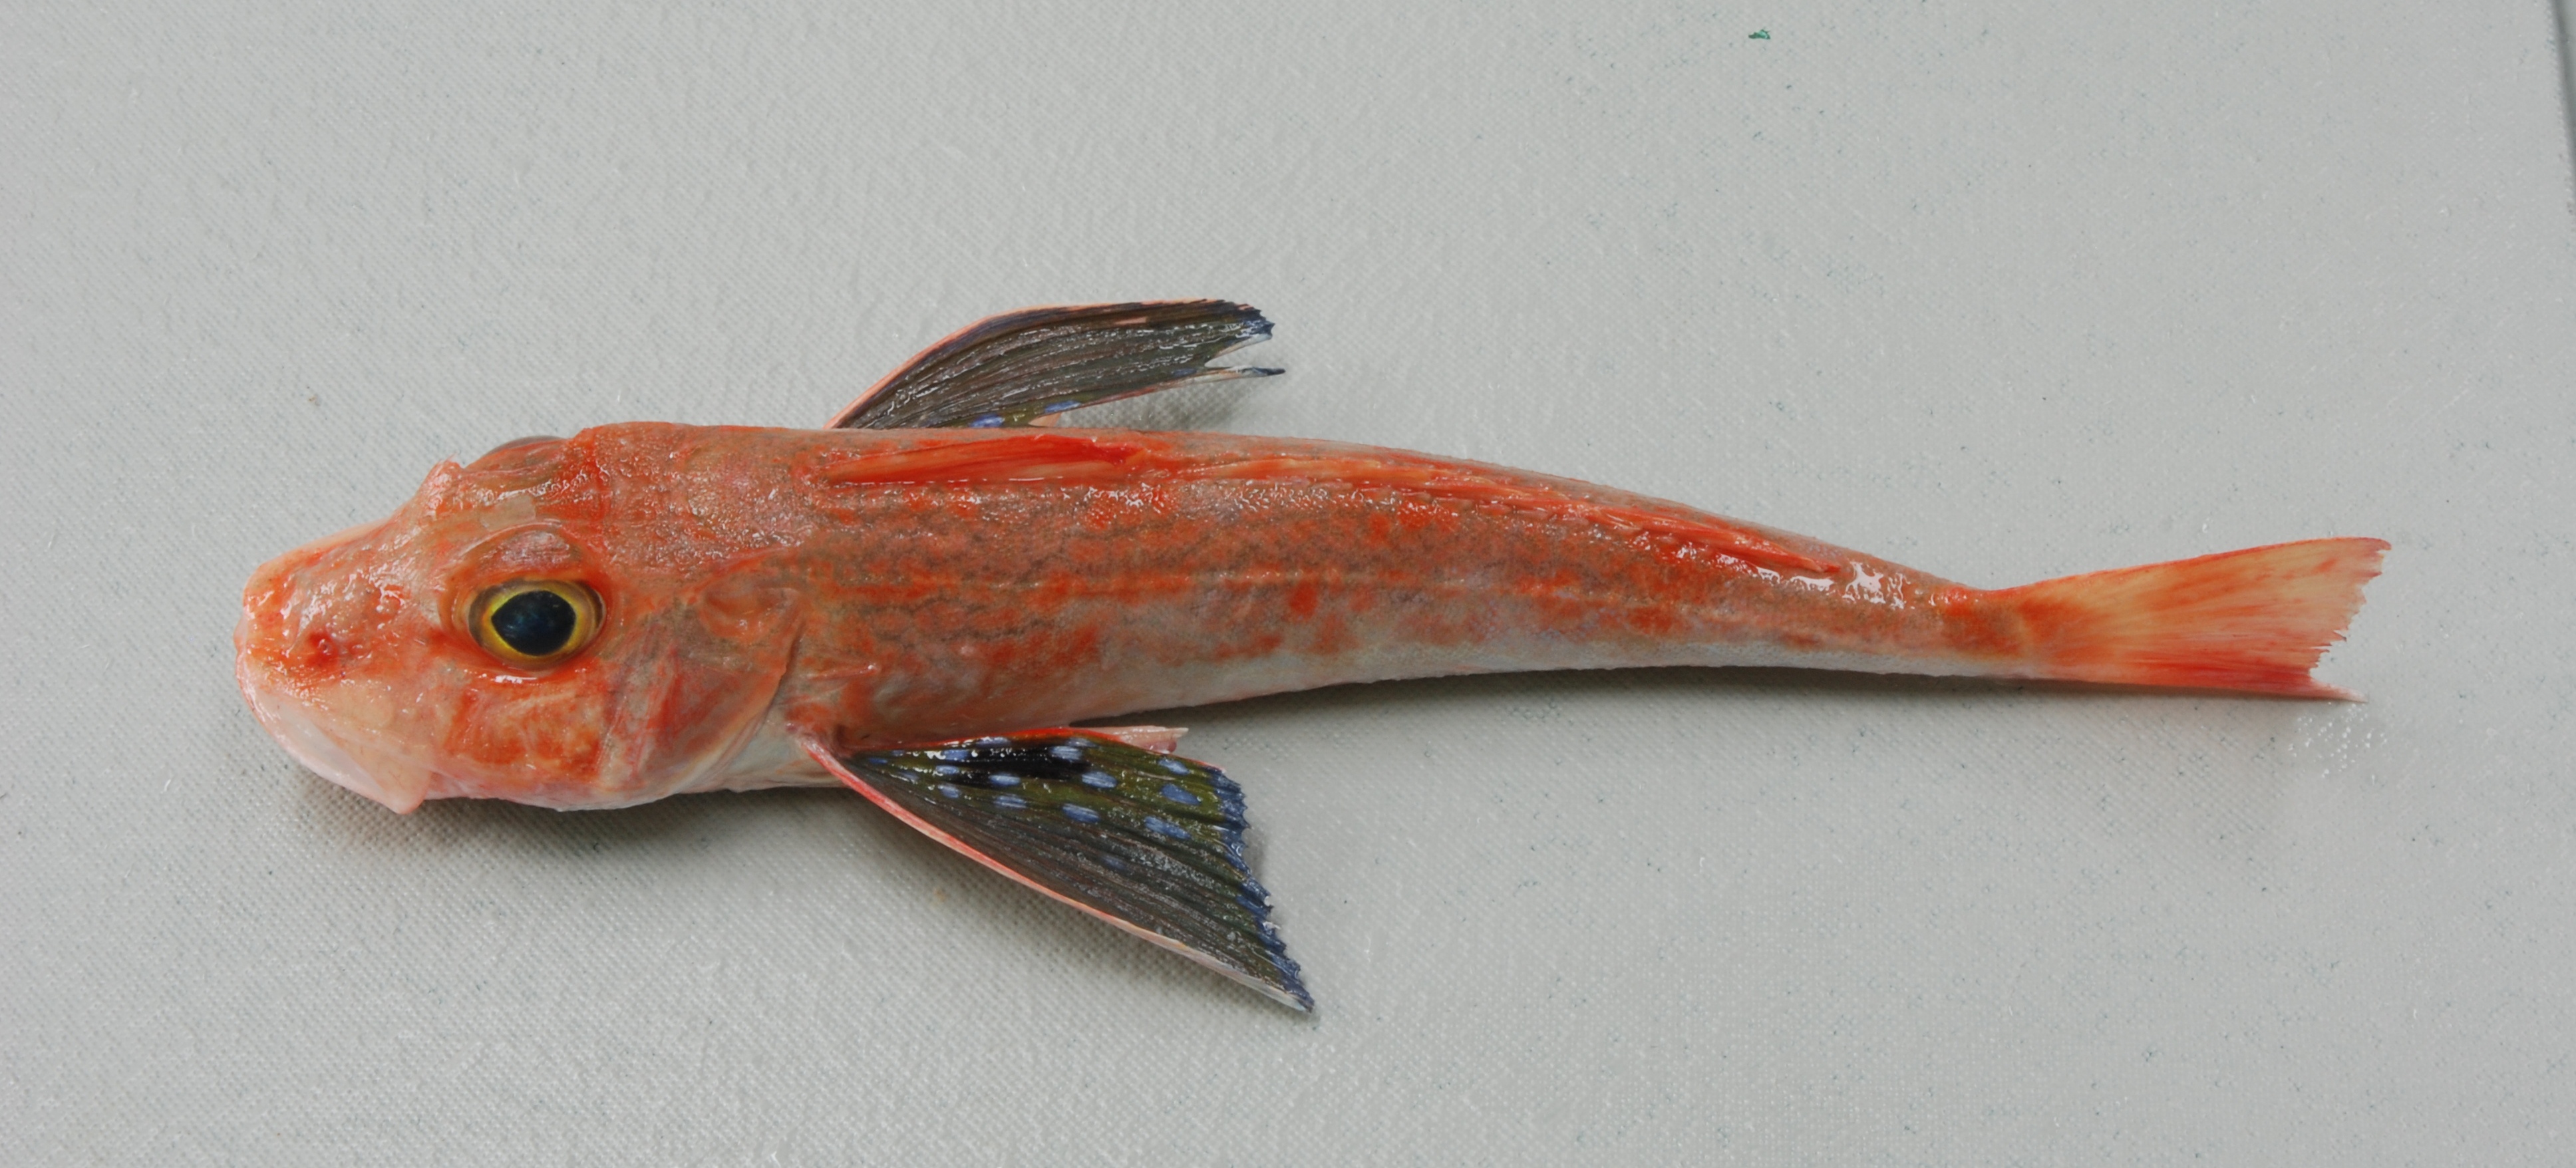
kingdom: Animalia
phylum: Chordata
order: Scorpaeniformes
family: Triglidae
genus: Chelidonichthys
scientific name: Chelidonichthys kumu
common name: Bluefin gurnard
